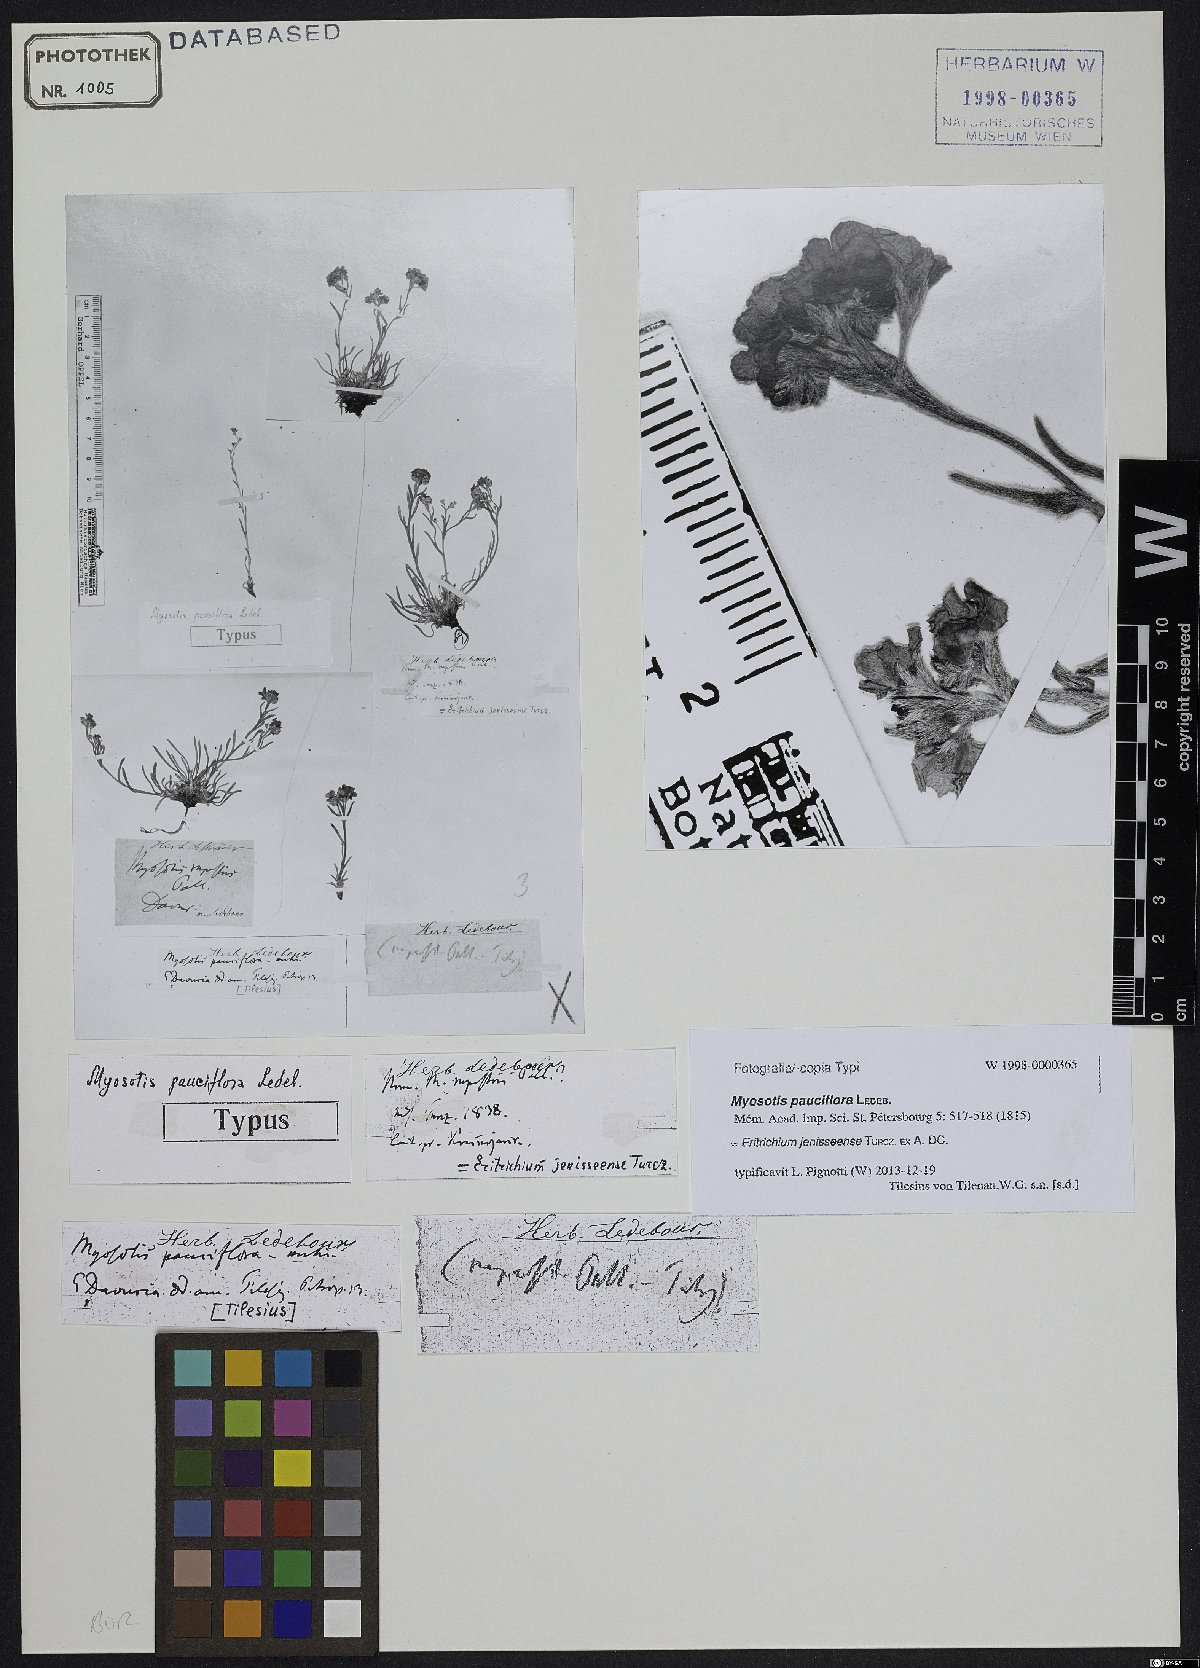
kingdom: Plantae
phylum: Tracheophyta
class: Magnoliopsida
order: Boraginales
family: Boraginaceae
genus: Eritrichium
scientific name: Eritrichium jenisseense
